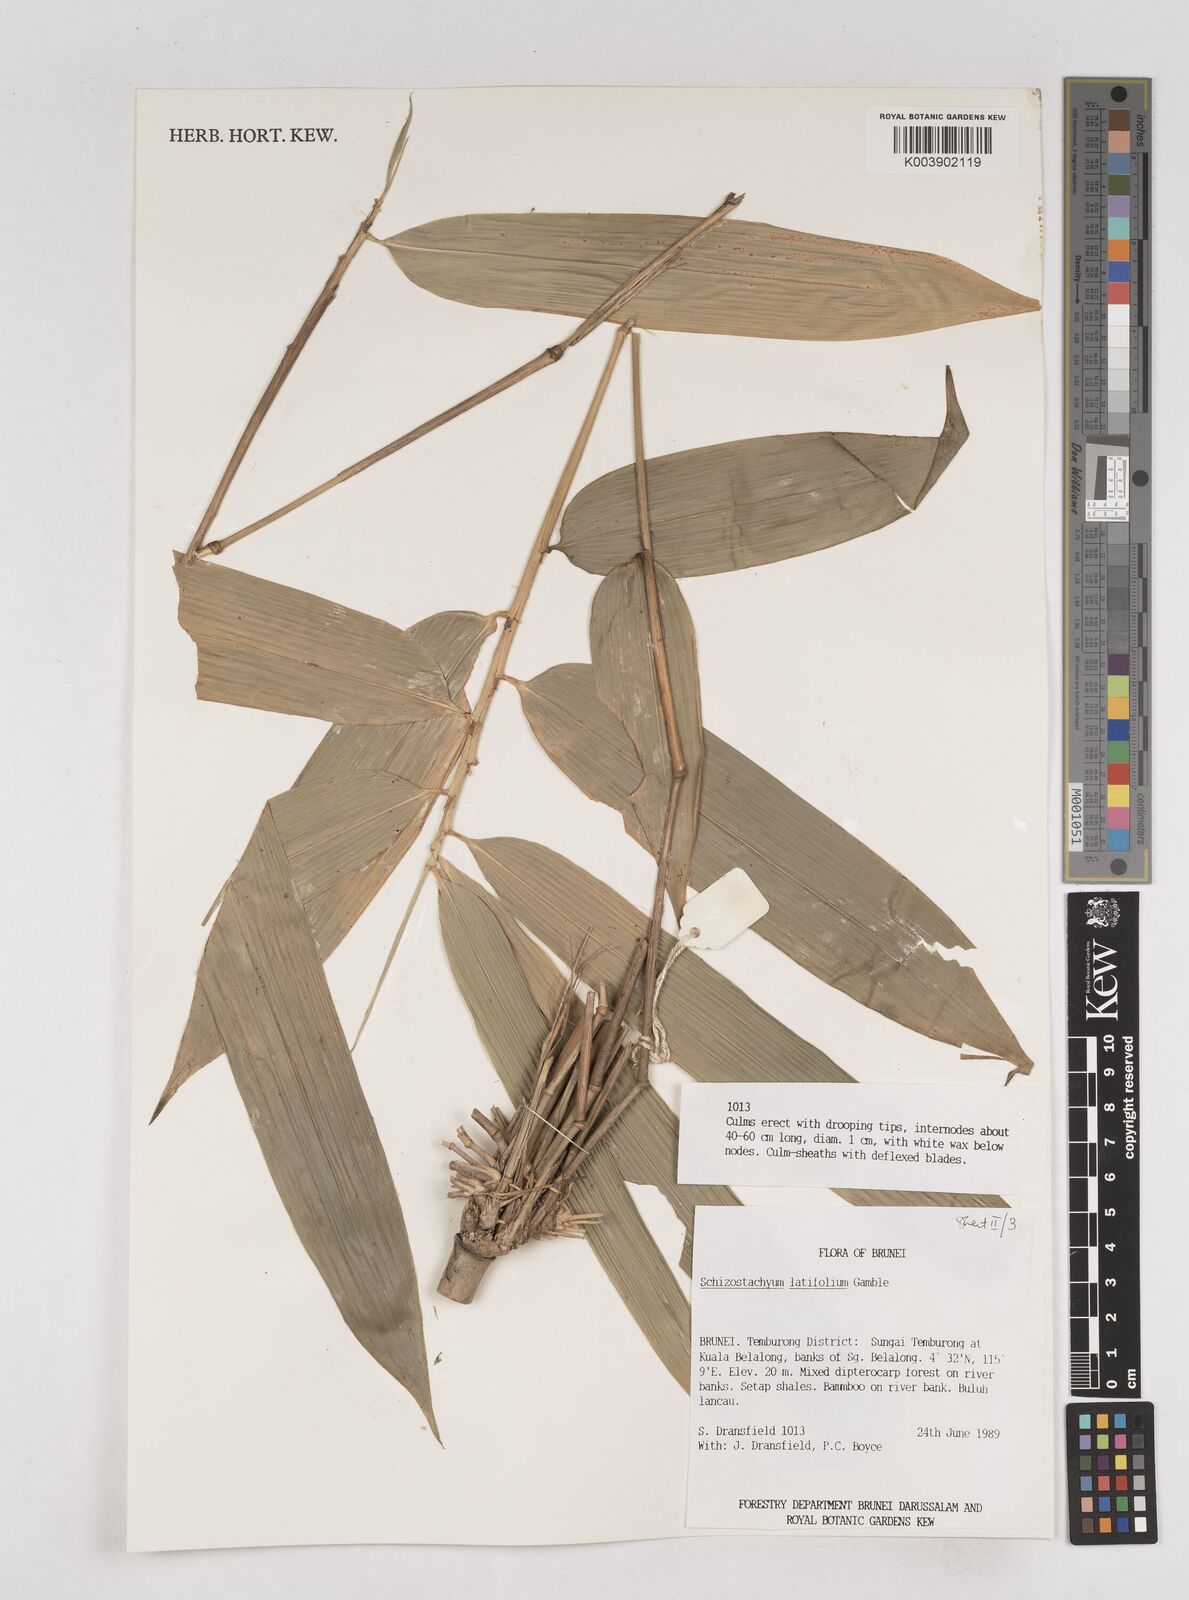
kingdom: Plantae
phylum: Tracheophyta
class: Liliopsida
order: Poales
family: Poaceae
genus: Schizostachyum
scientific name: Schizostachyum
